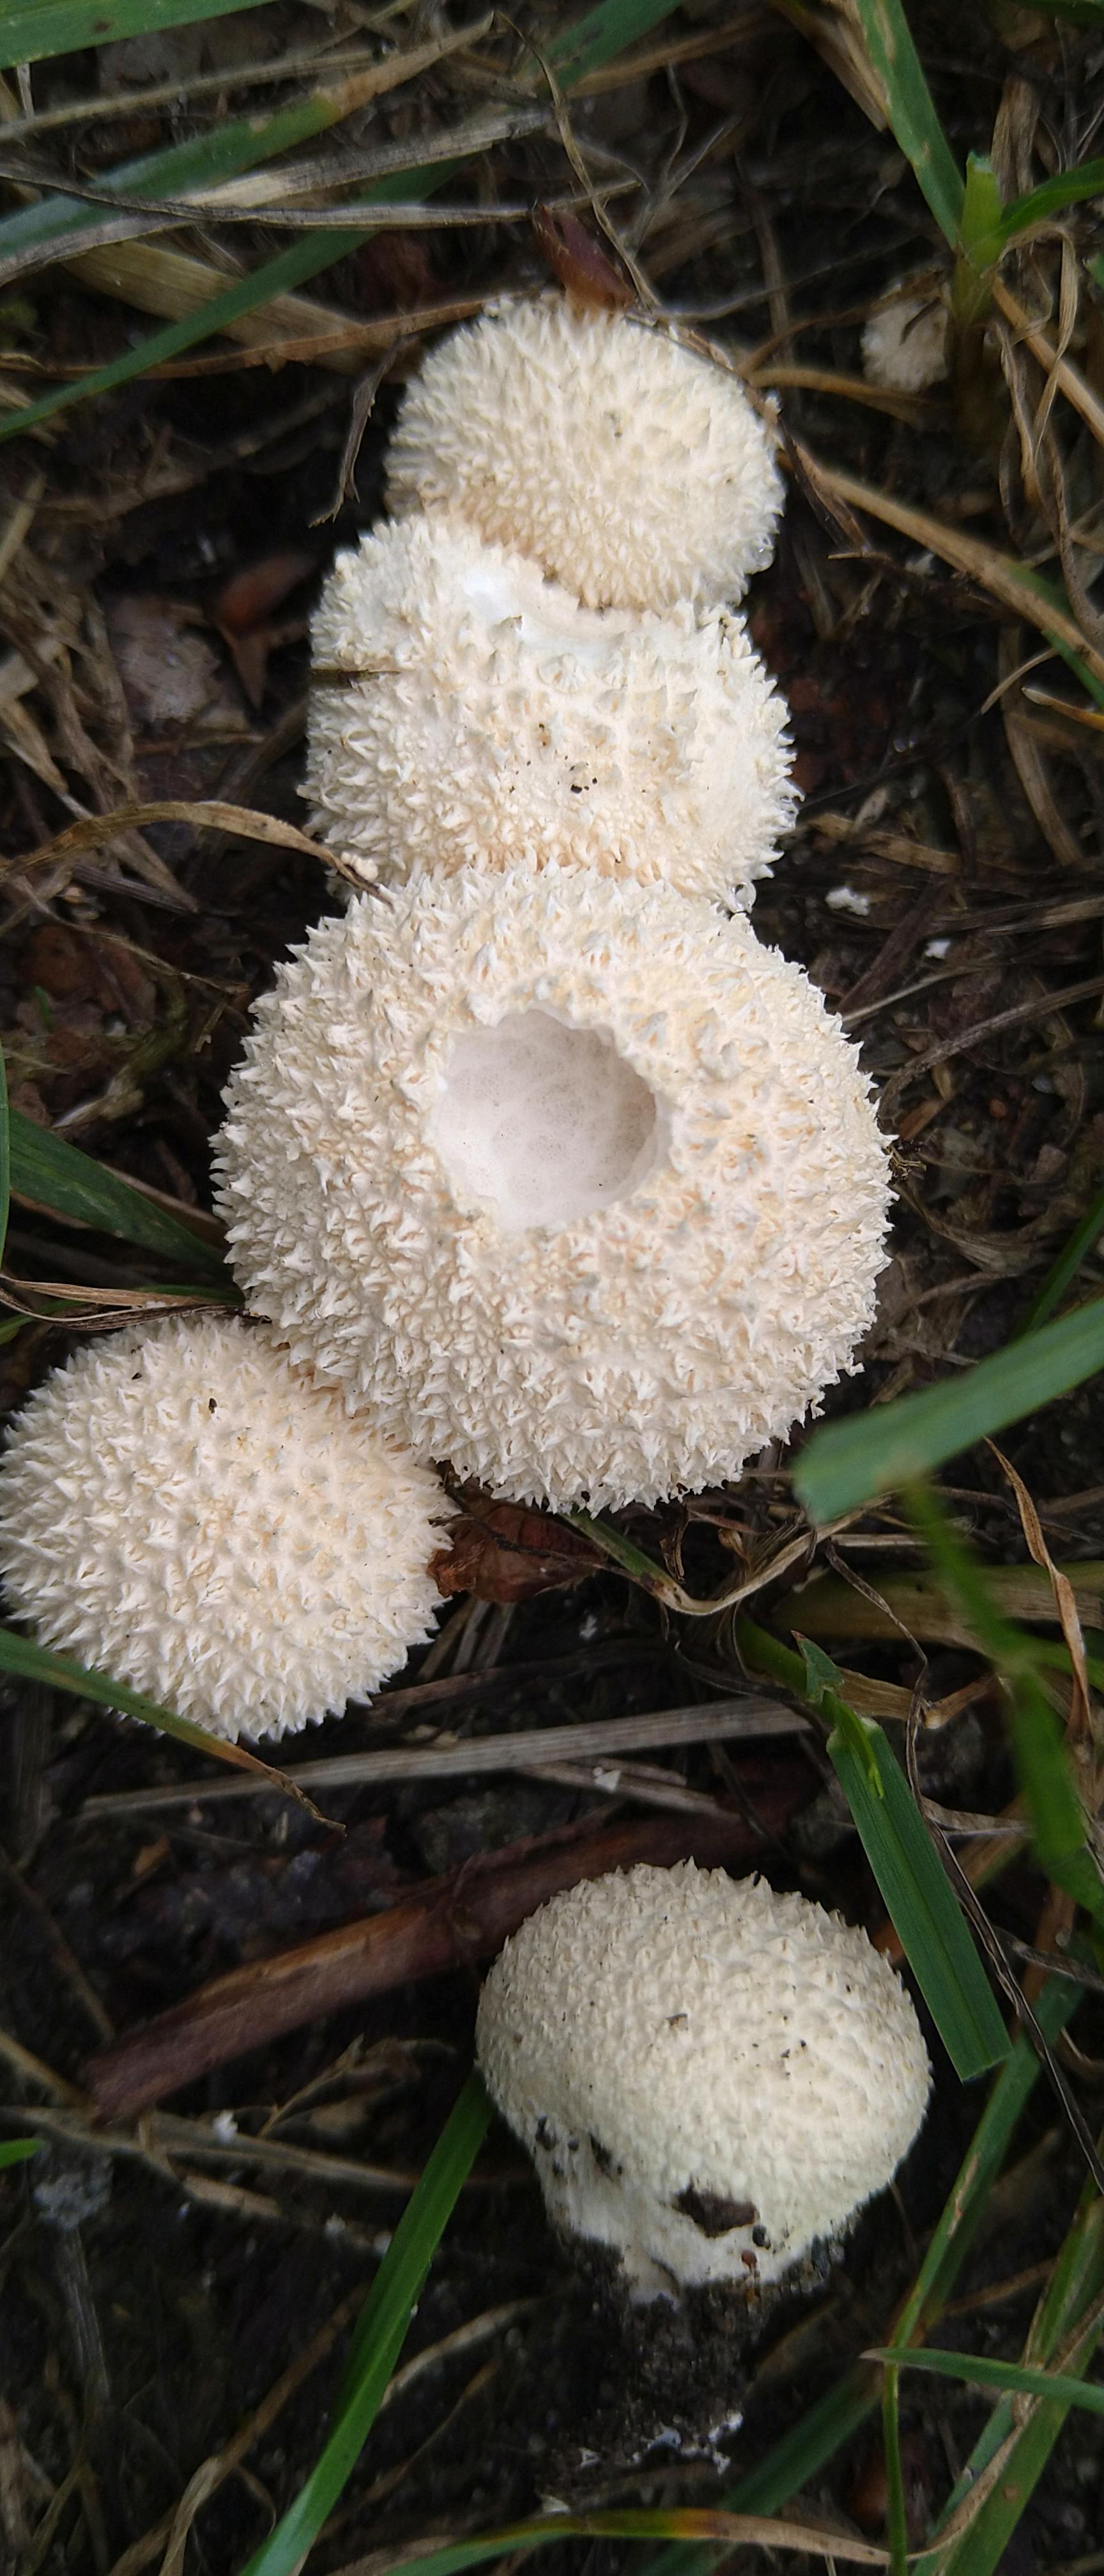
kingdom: Fungi
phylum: Basidiomycota
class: Agaricomycetes
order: Agaricales
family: Lycoperdaceae
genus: Lycoperdon
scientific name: Lycoperdon pratense
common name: flad støvbold
